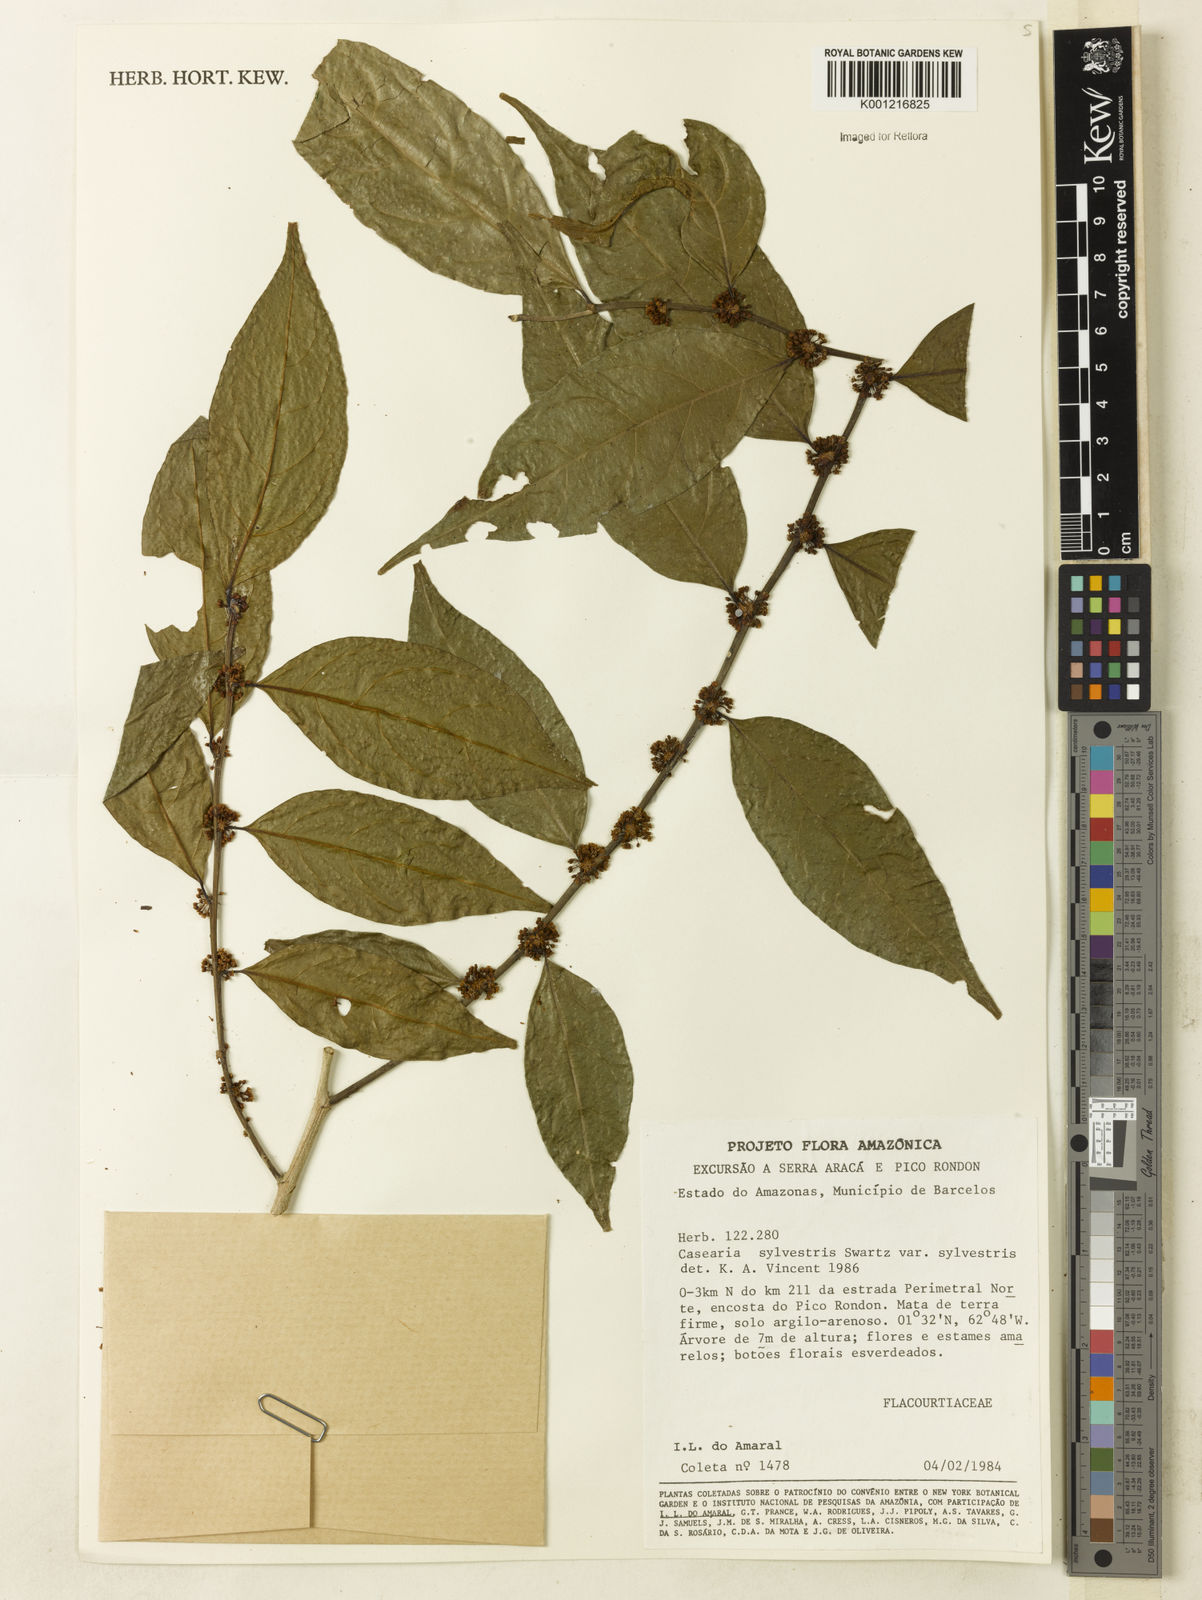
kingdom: Plantae
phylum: Tracheophyta
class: Magnoliopsida
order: Malpighiales
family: Salicaceae
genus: Casearia
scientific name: Casearia sylvestris
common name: Wild sage
